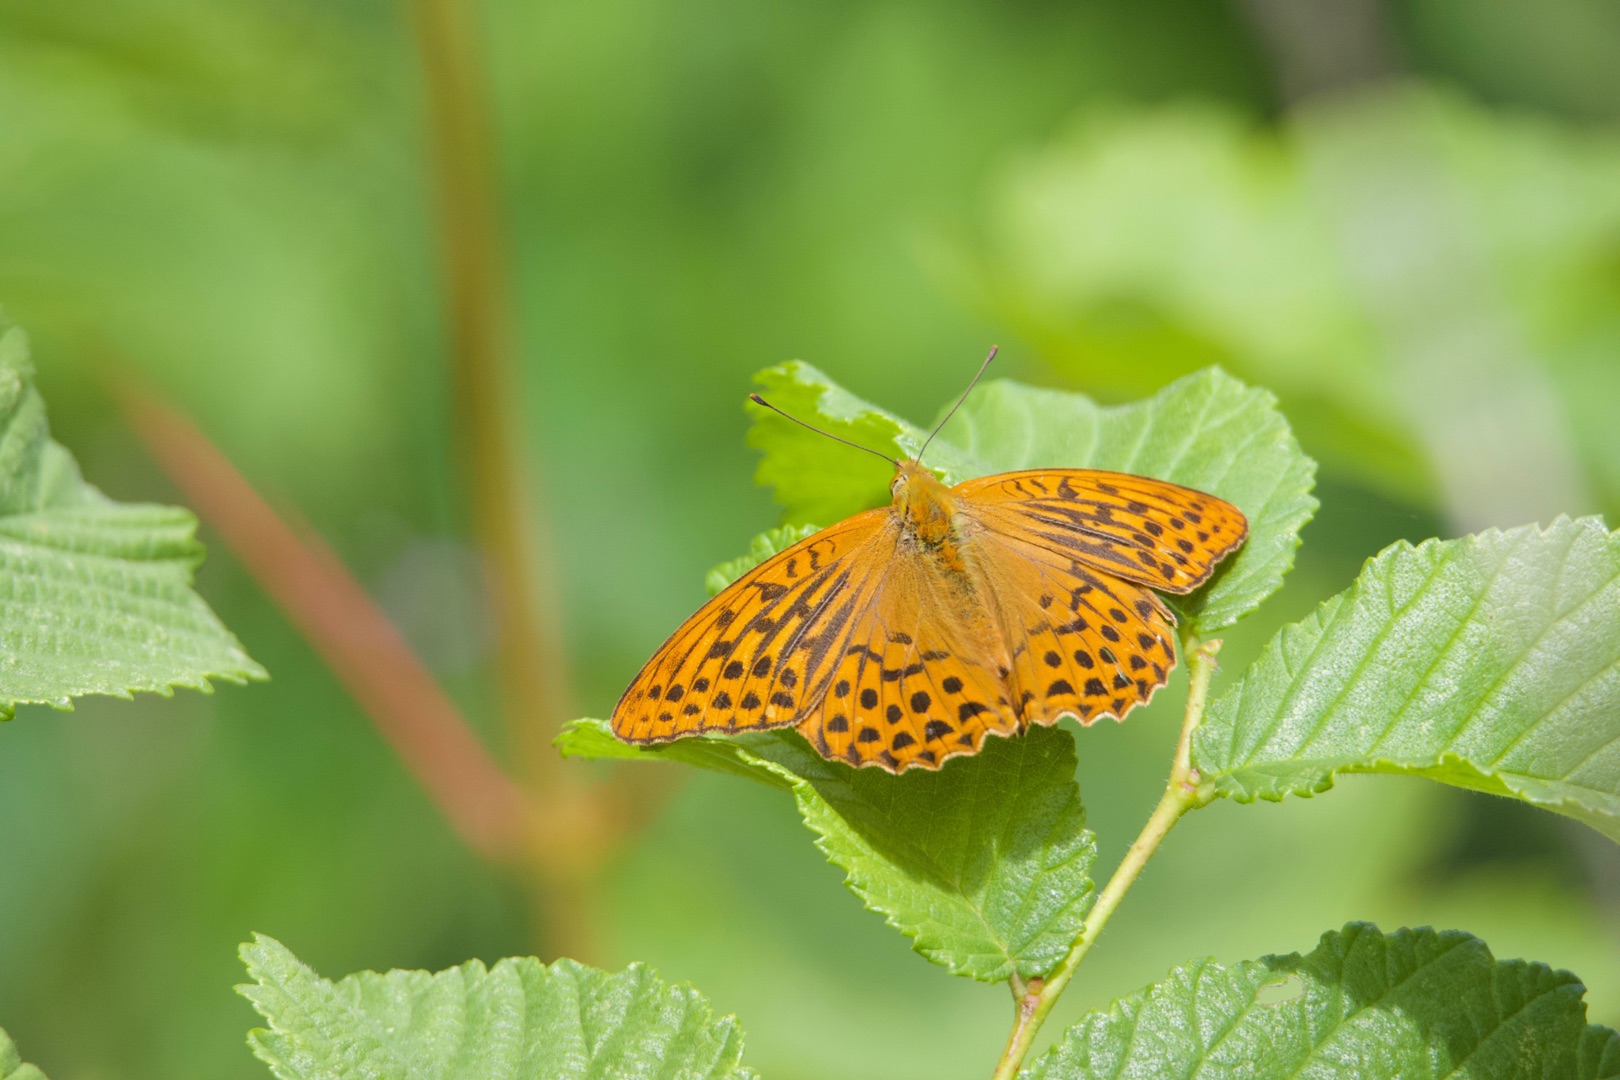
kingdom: Animalia
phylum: Arthropoda
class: Insecta
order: Lepidoptera
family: Nymphalidae
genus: Argynnis
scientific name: Argynnis paphia
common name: Kejserkåbe
